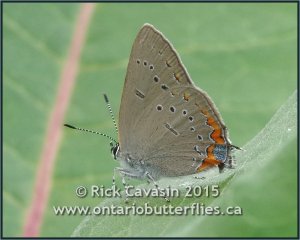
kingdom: Animalia
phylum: Arthropoda
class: Insecta
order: Lepidoptera
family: Lycaenidae
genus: Strymon
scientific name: Strymon acadica
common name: Acadian Hairstreak
